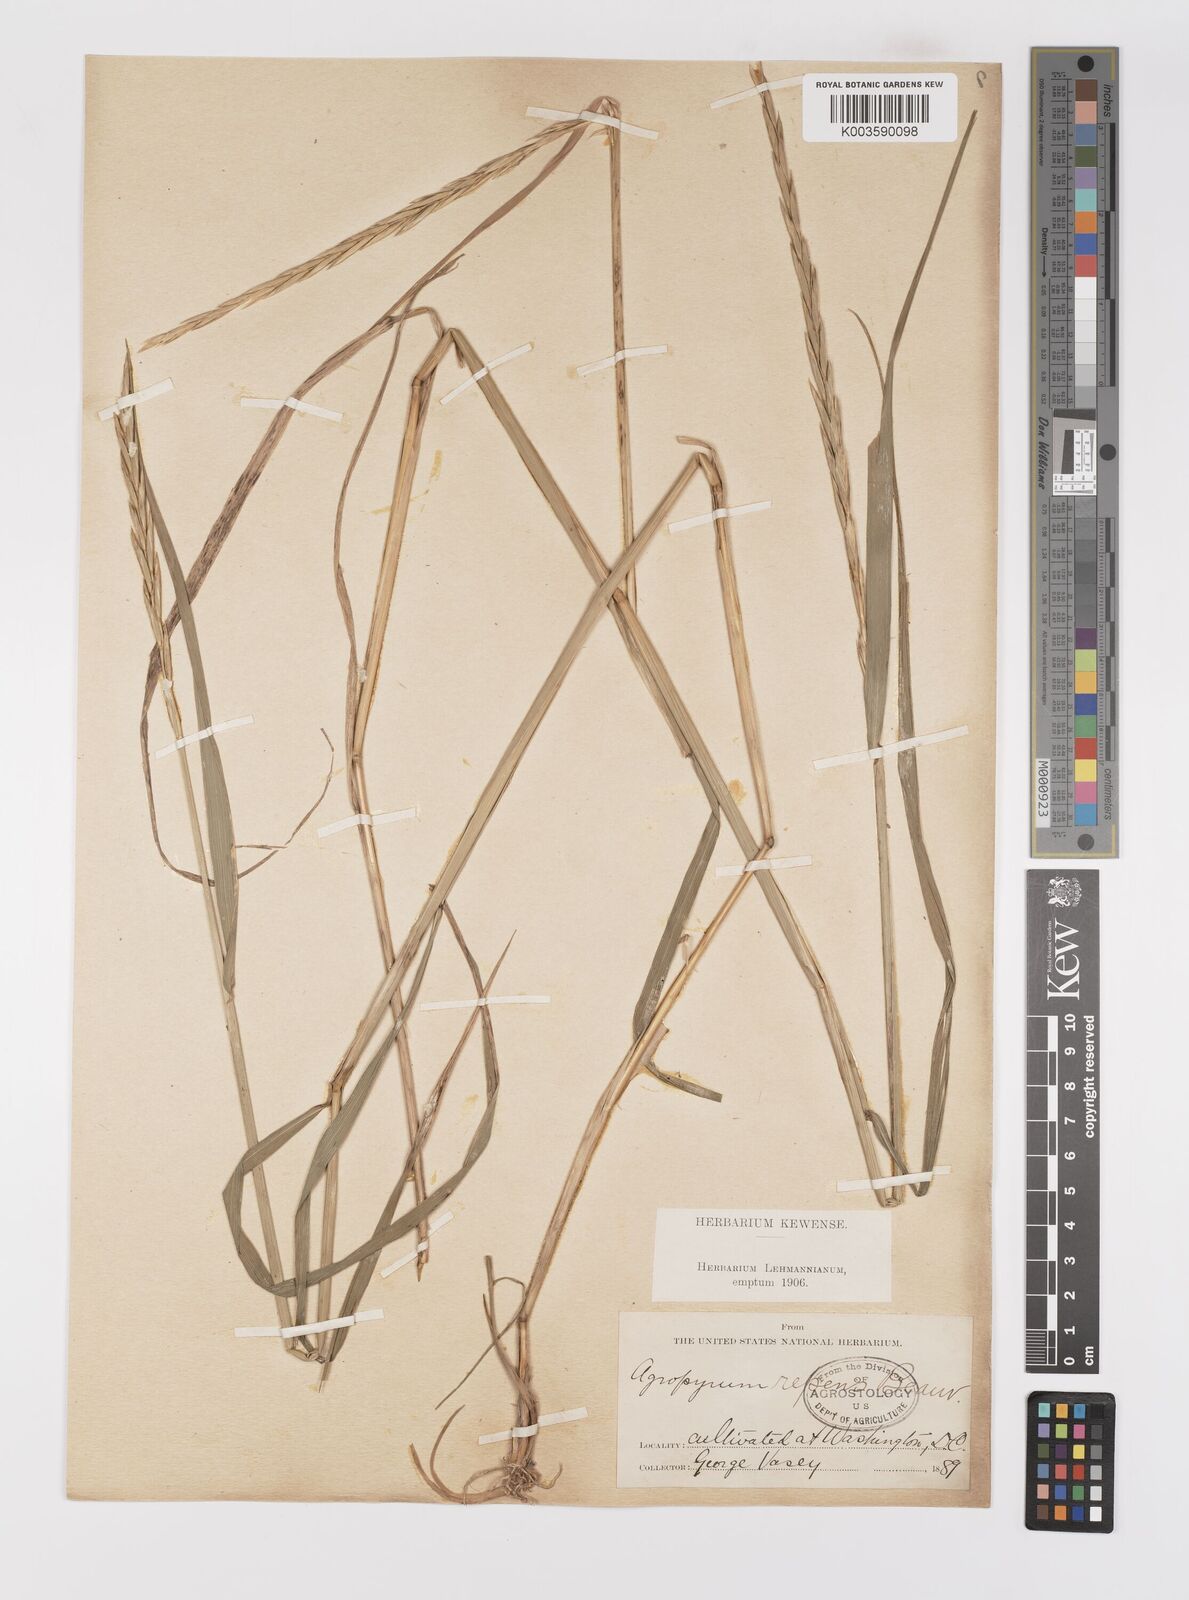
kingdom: Plantae
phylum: Tracheophyta
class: Liliopsida
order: Poales
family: Poaceae
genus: Elymus
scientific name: Elymus repens
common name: Quackgrass
